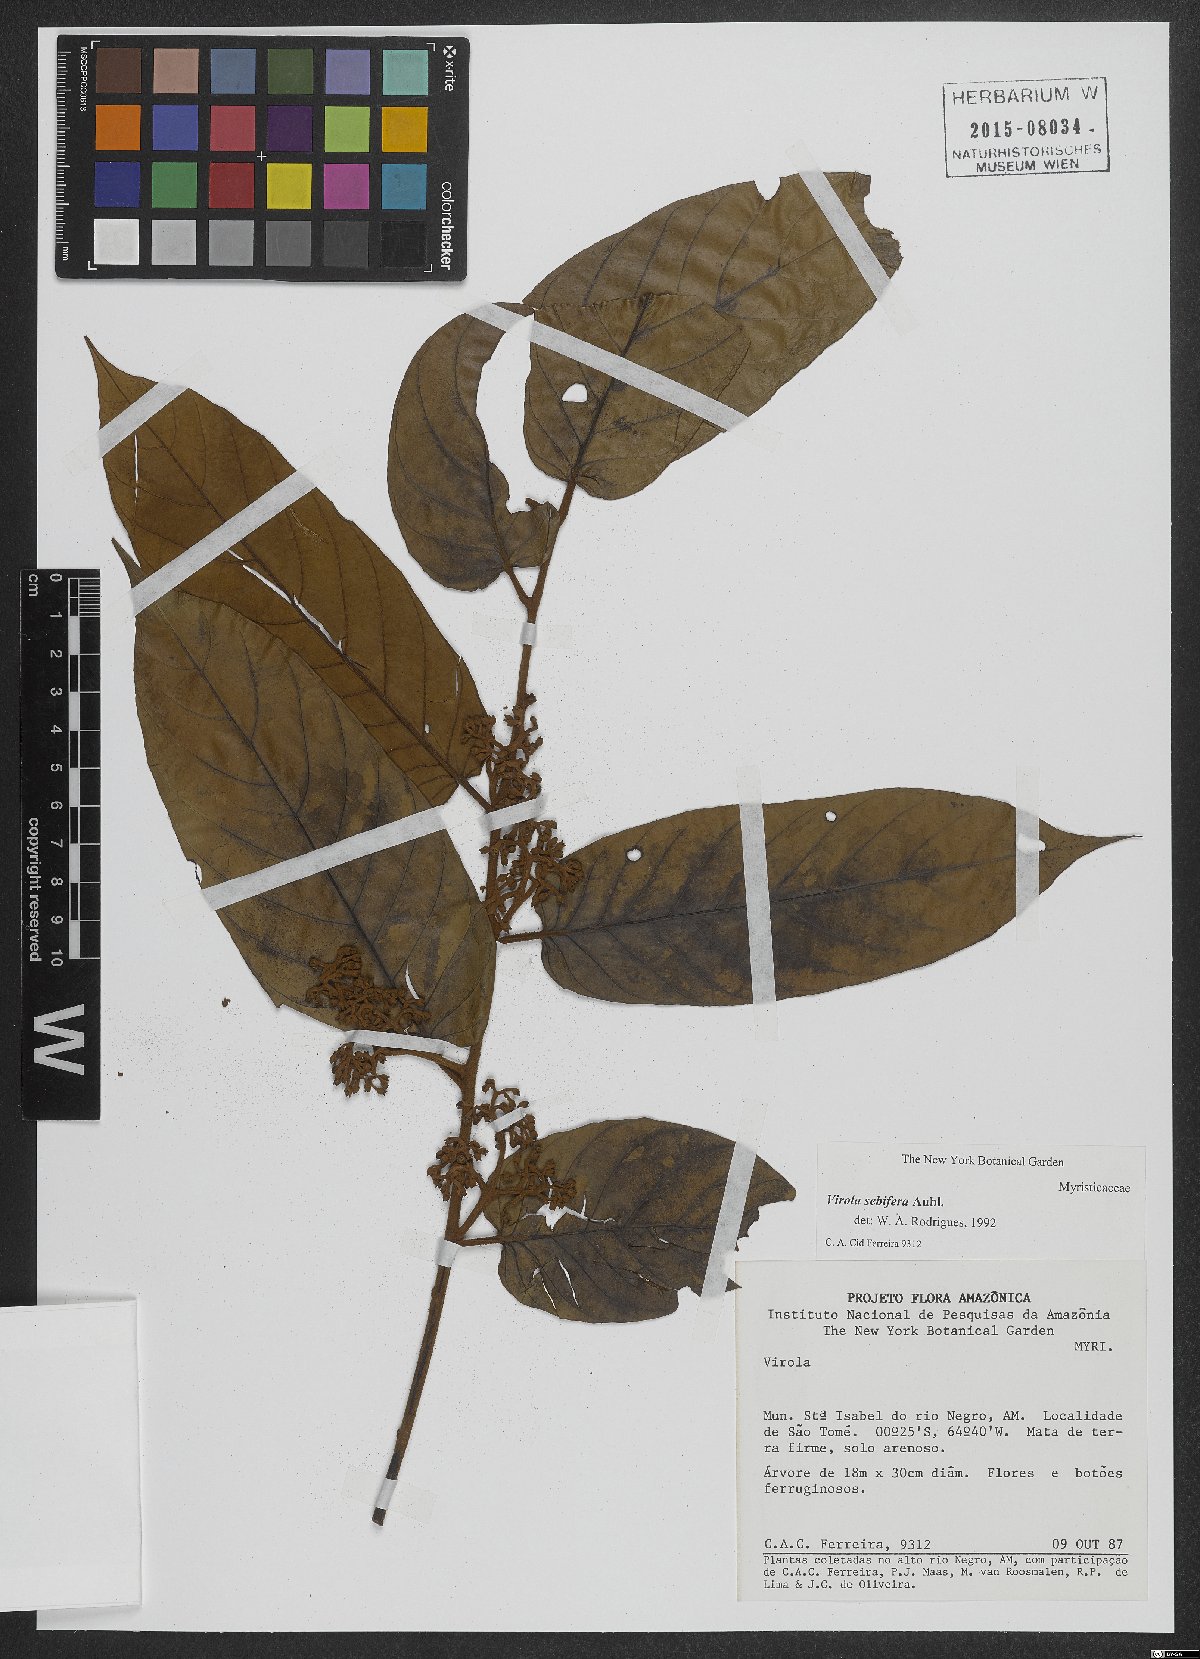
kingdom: Plantae
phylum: Tracheophyta
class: Magnoliopsida
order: Magnoliales
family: Myristicaceae
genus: Virola
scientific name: Virola sebifera
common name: Red ucuuba
